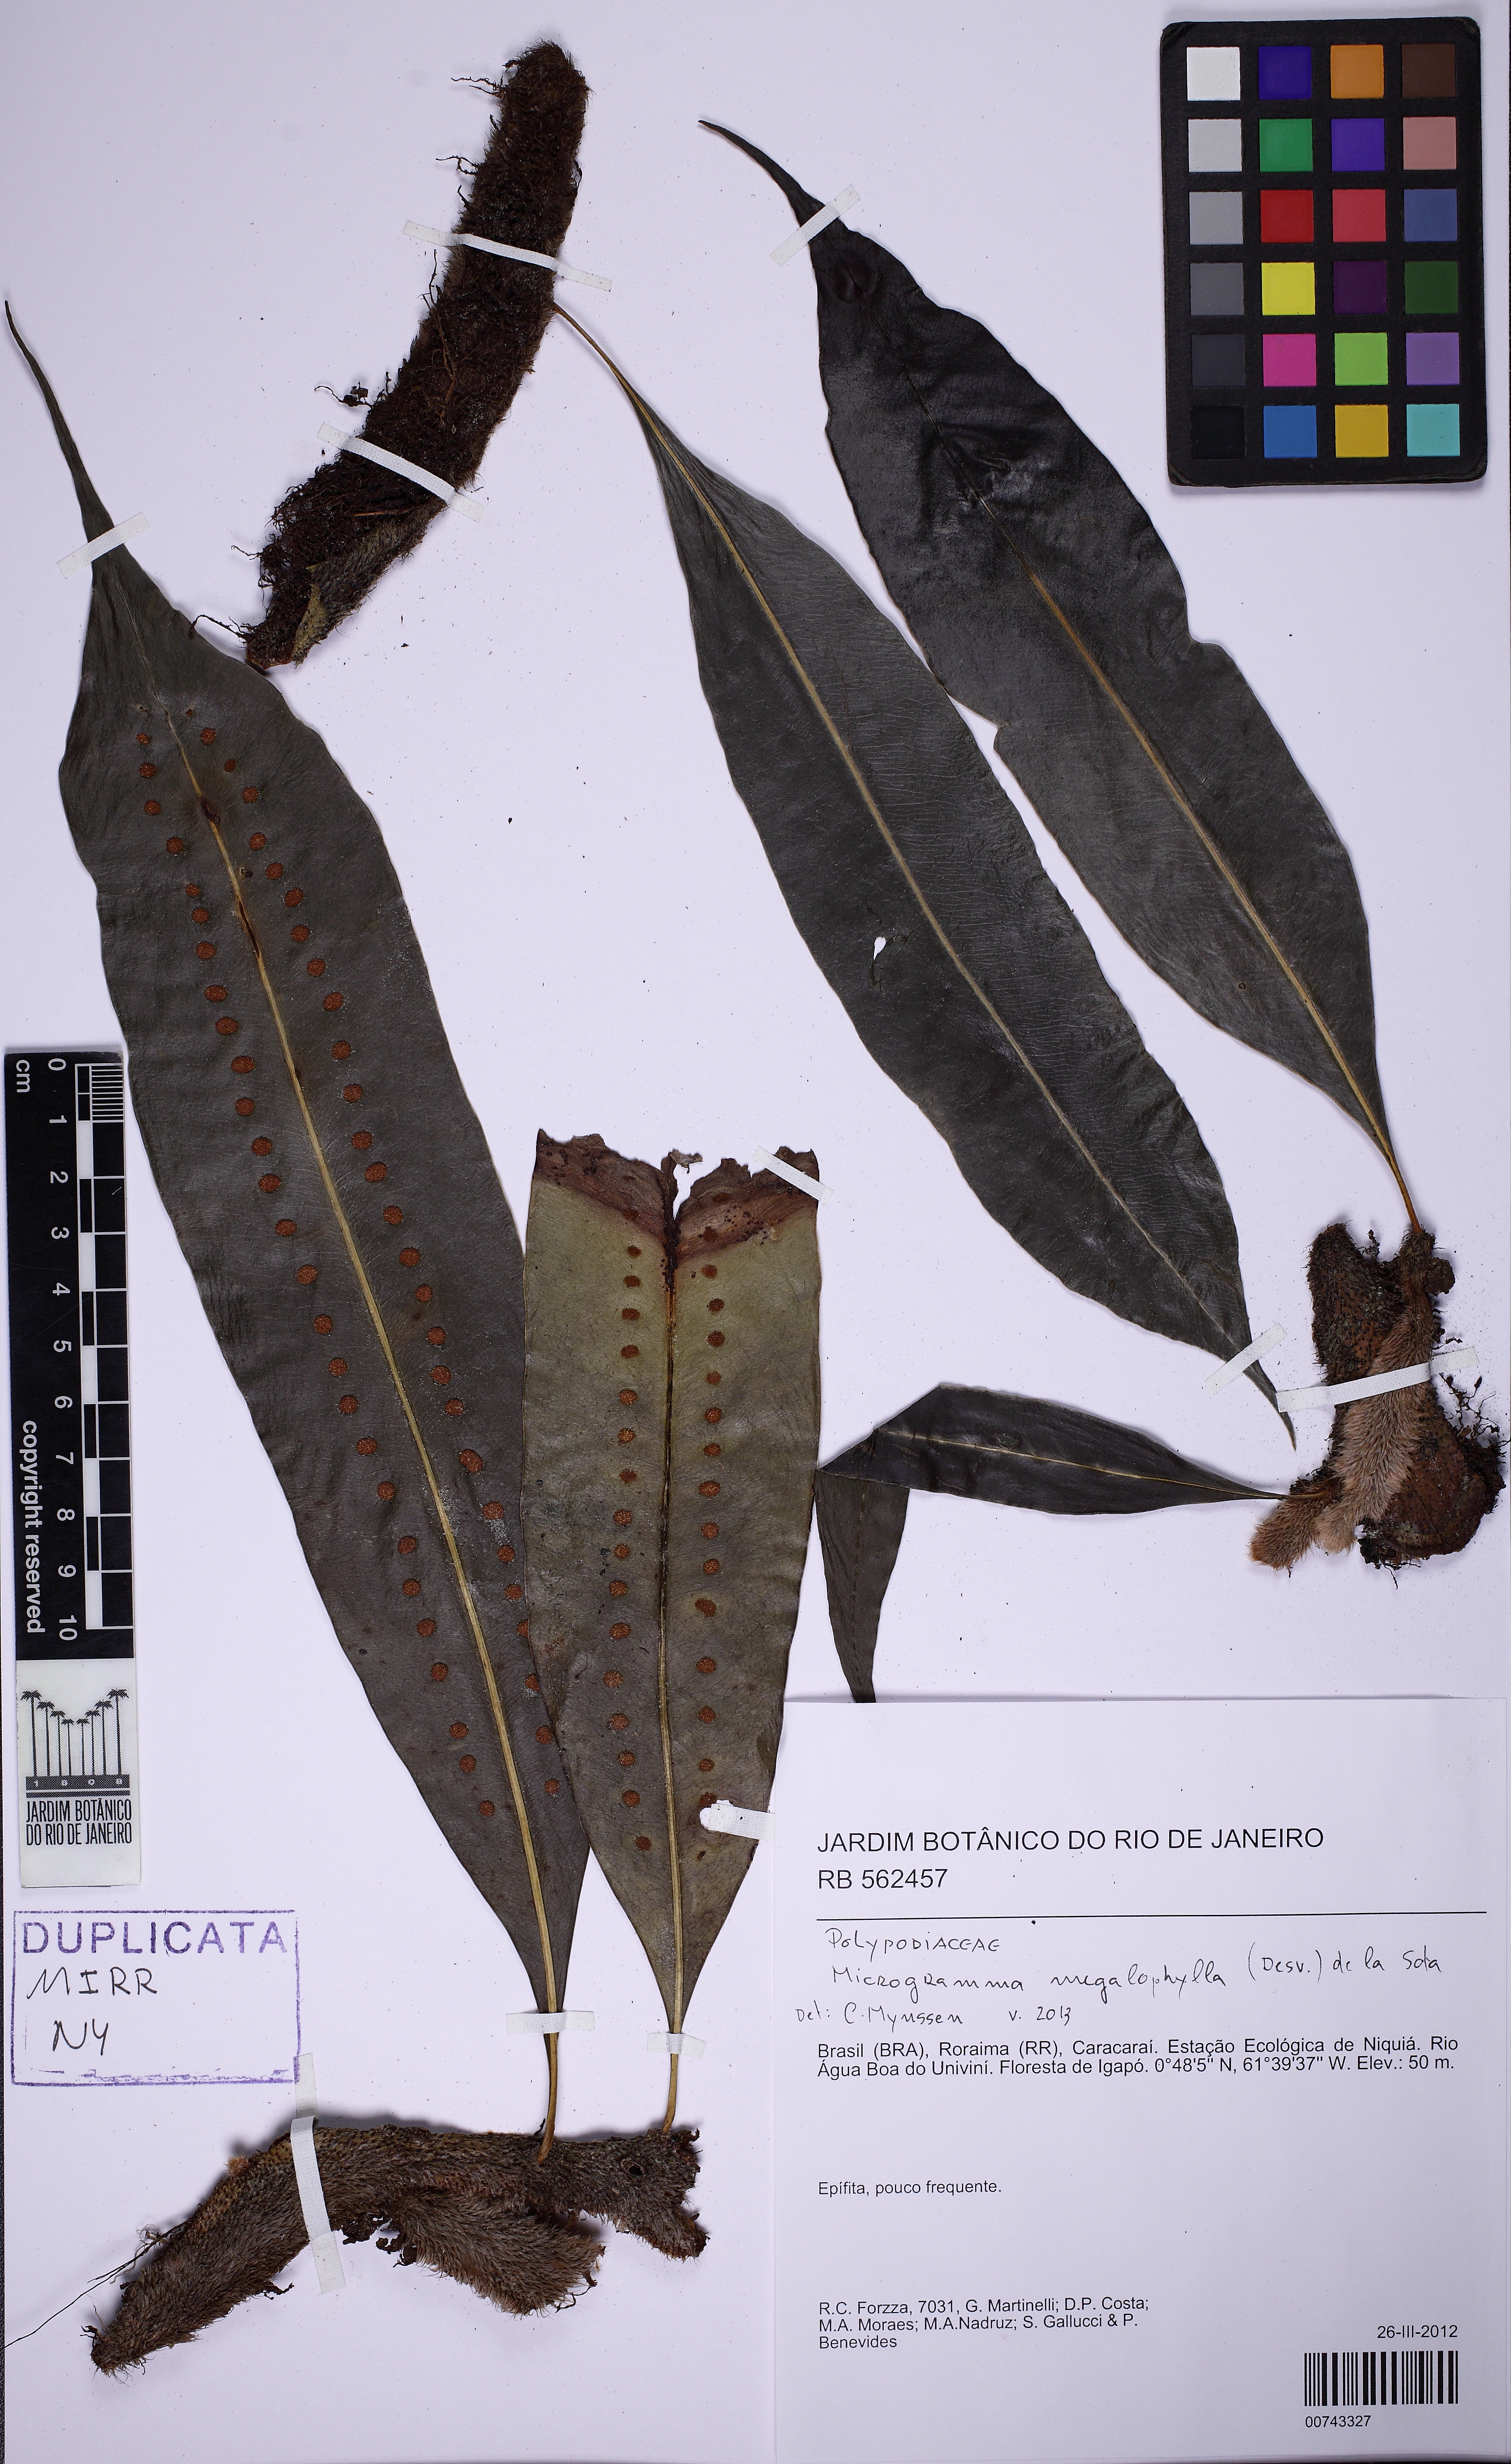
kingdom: Plantae
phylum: Tracheophyta
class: Polypodiopsida
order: Polypodiales
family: Polypodiaceae
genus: Microgramma
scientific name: Microgramma megalophylla
